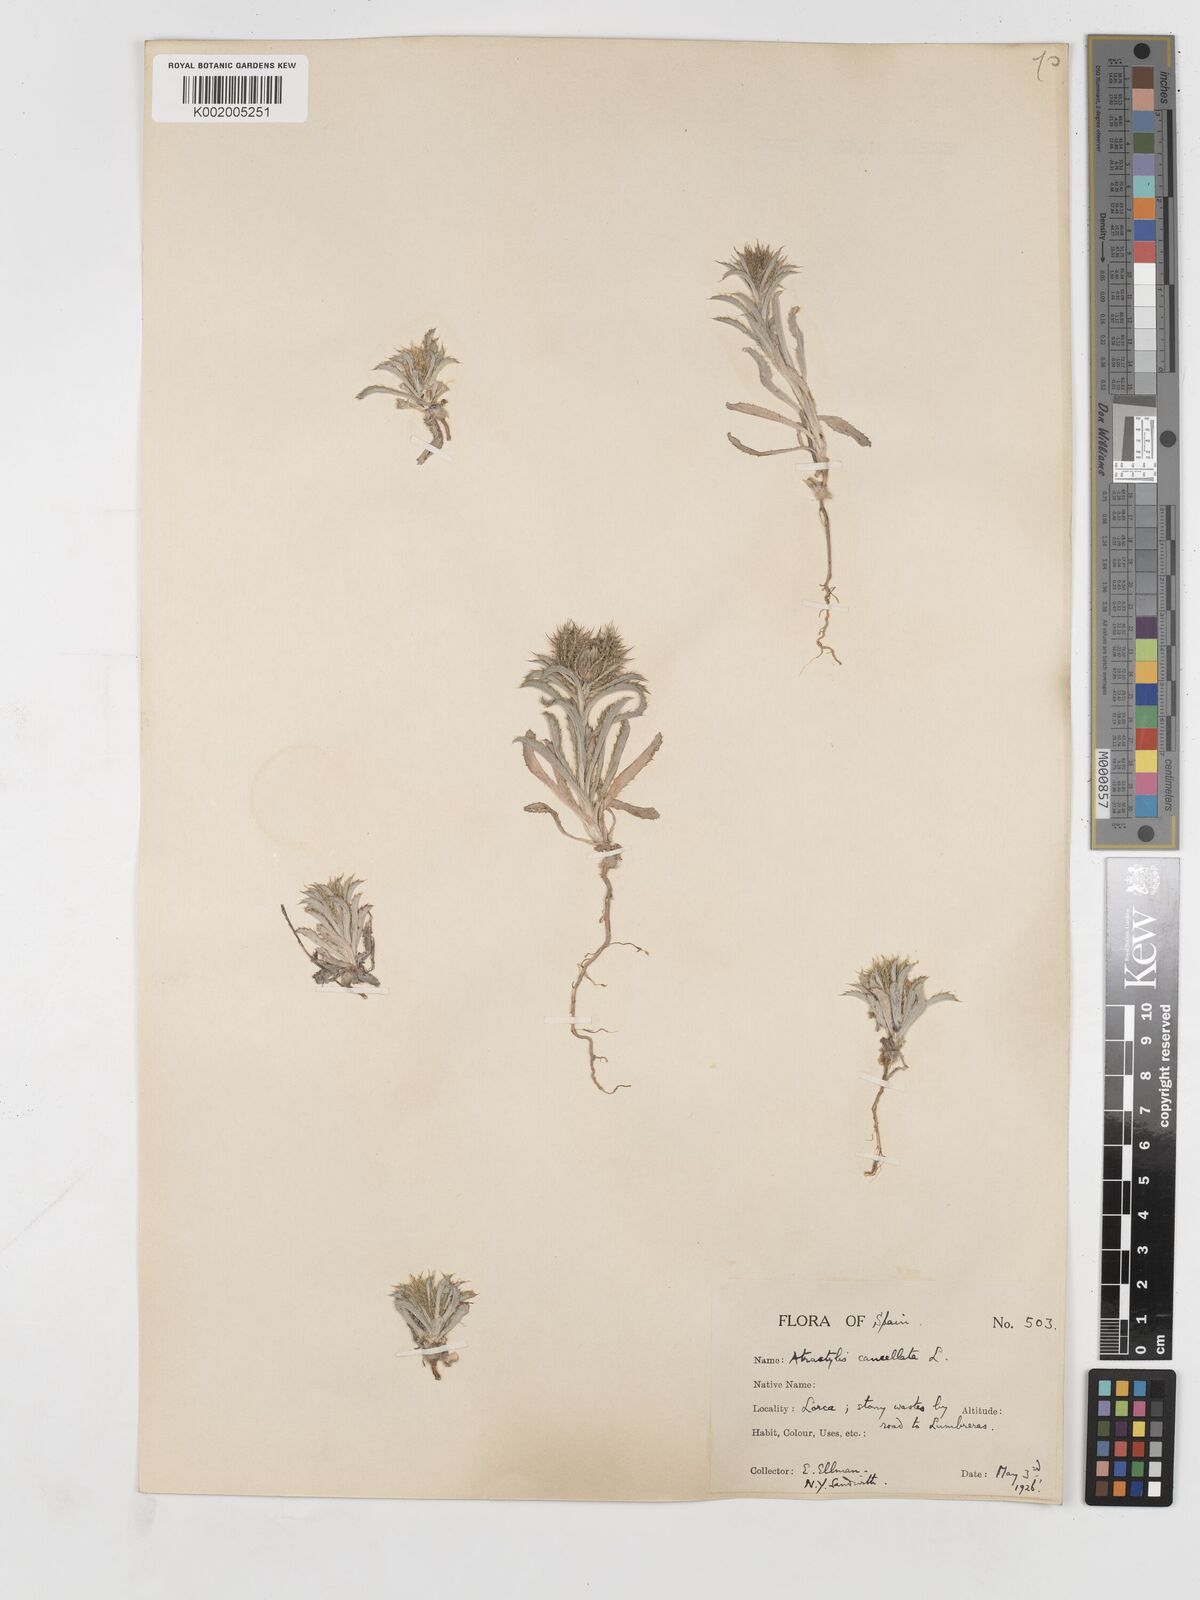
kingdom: Plantae
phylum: Tracheophyta
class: Magnoliopsida
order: Asterales
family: Asteraceae
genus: Atractylis
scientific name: Atractylis cancellata
